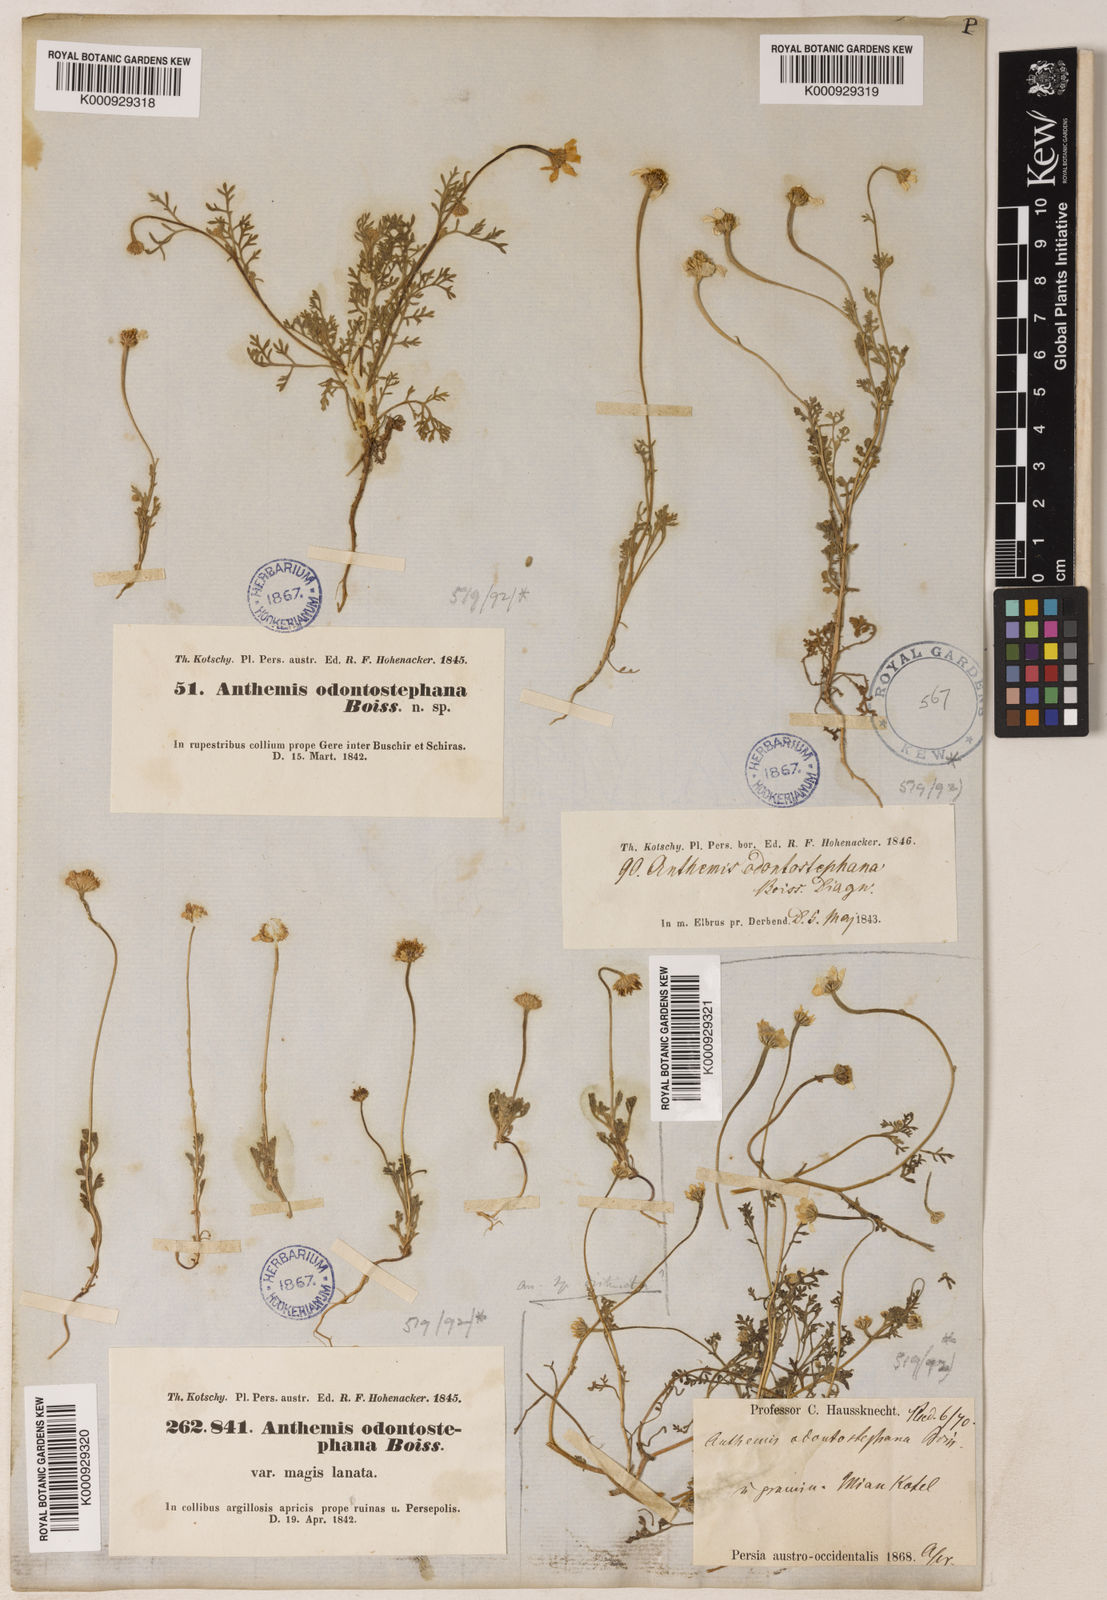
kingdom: Plantae
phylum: Tracheophyta
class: Magnoliopsida
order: Asterales
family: Asteraceae
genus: Anthemis
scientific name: Anthemis odontostephana
